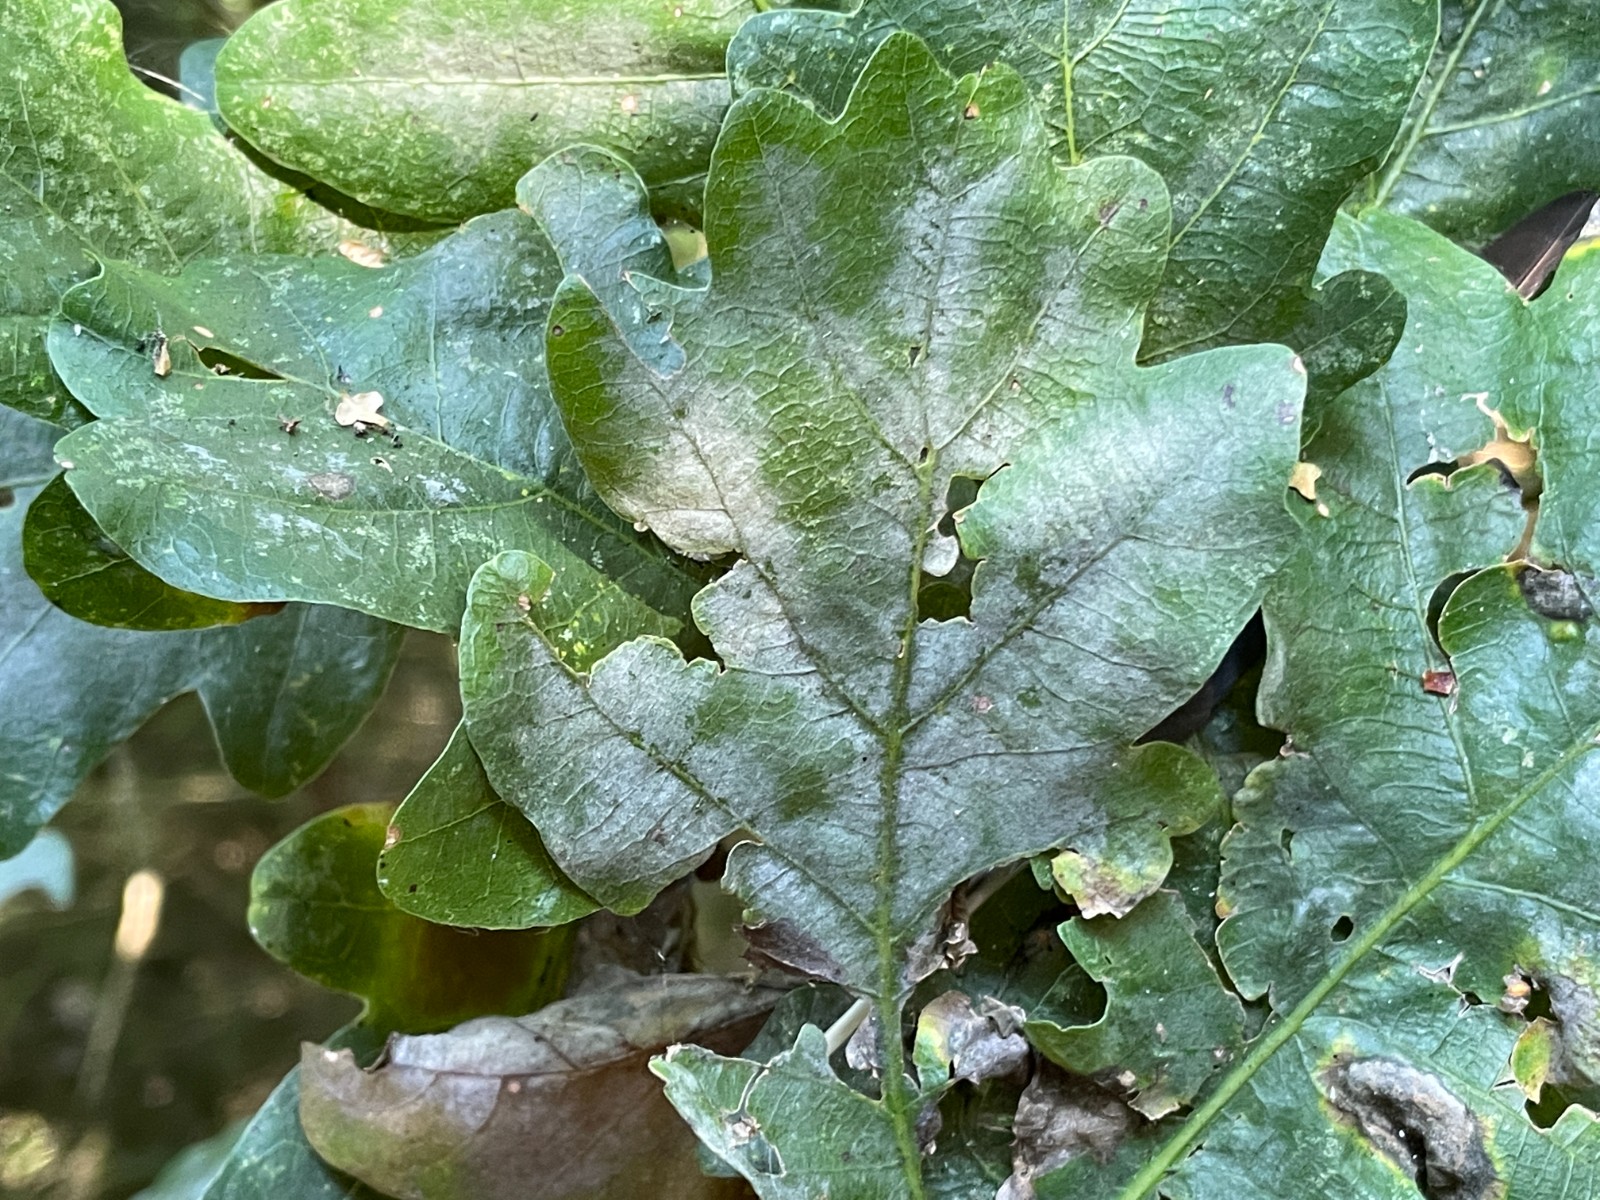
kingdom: Fungi
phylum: Ascomycota
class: Leotiomycetes
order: Helotiales
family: Erysiphaceae
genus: Erysiphe
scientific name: Erysiphe alphitoides
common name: ege-meldug
